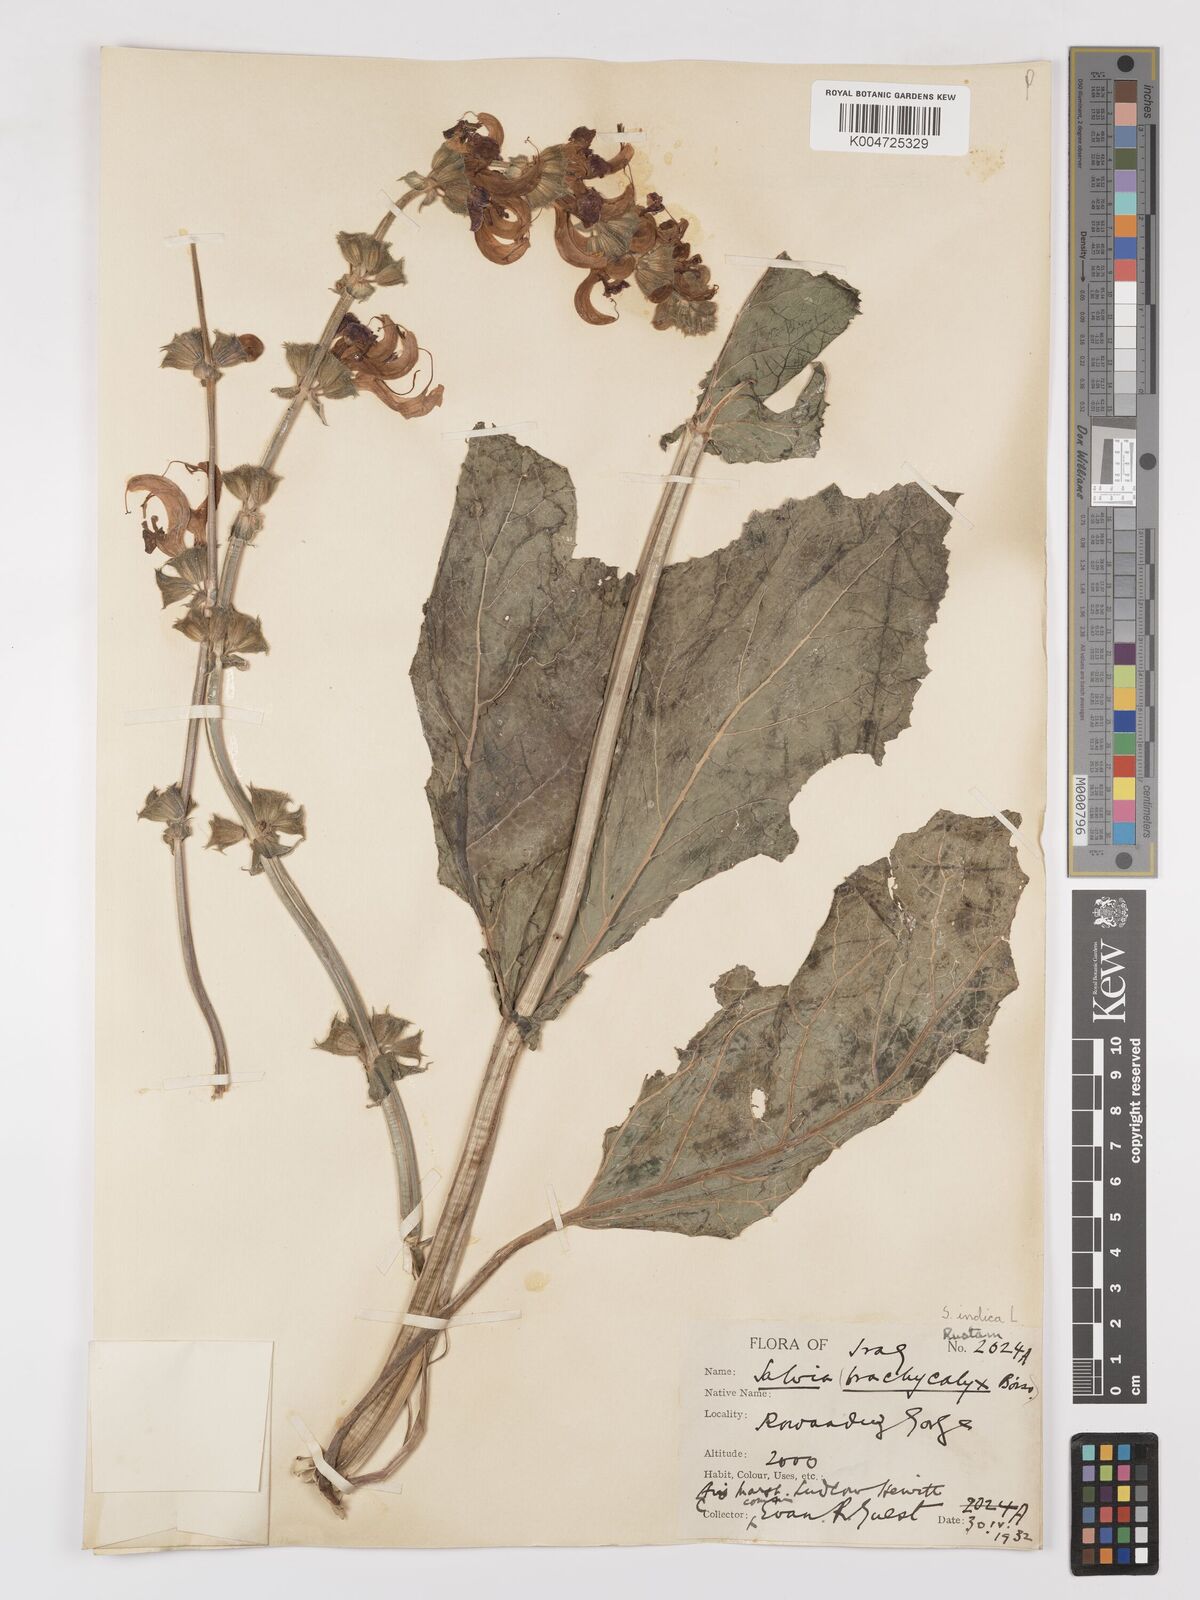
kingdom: Plantae
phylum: Tracheophyta
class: Magnoliopsida
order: Lamiales
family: Lamiaceae
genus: Salvia
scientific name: Salvia indica
